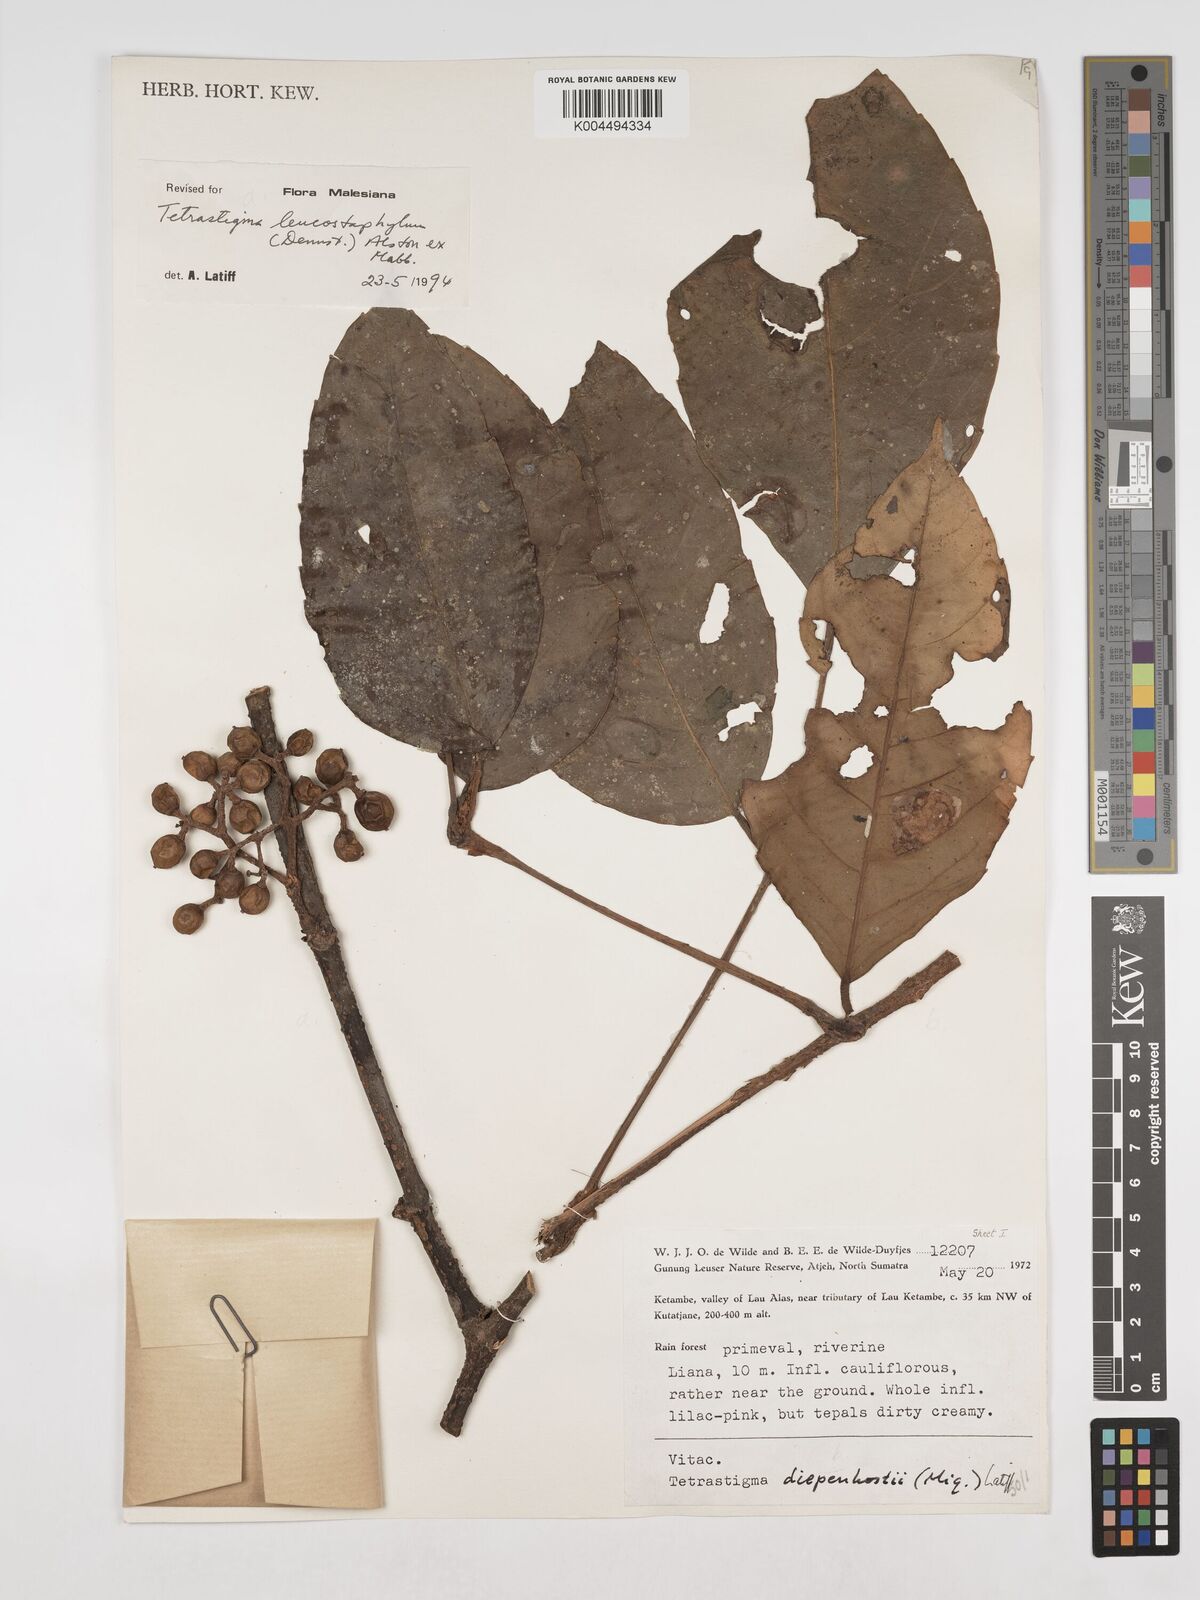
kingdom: Plantae
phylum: Tracheophyta
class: Magnoliopsida
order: Vitales
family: Vitaceae
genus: Tetrastigma
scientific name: Tetrastigma leucostaphylum
